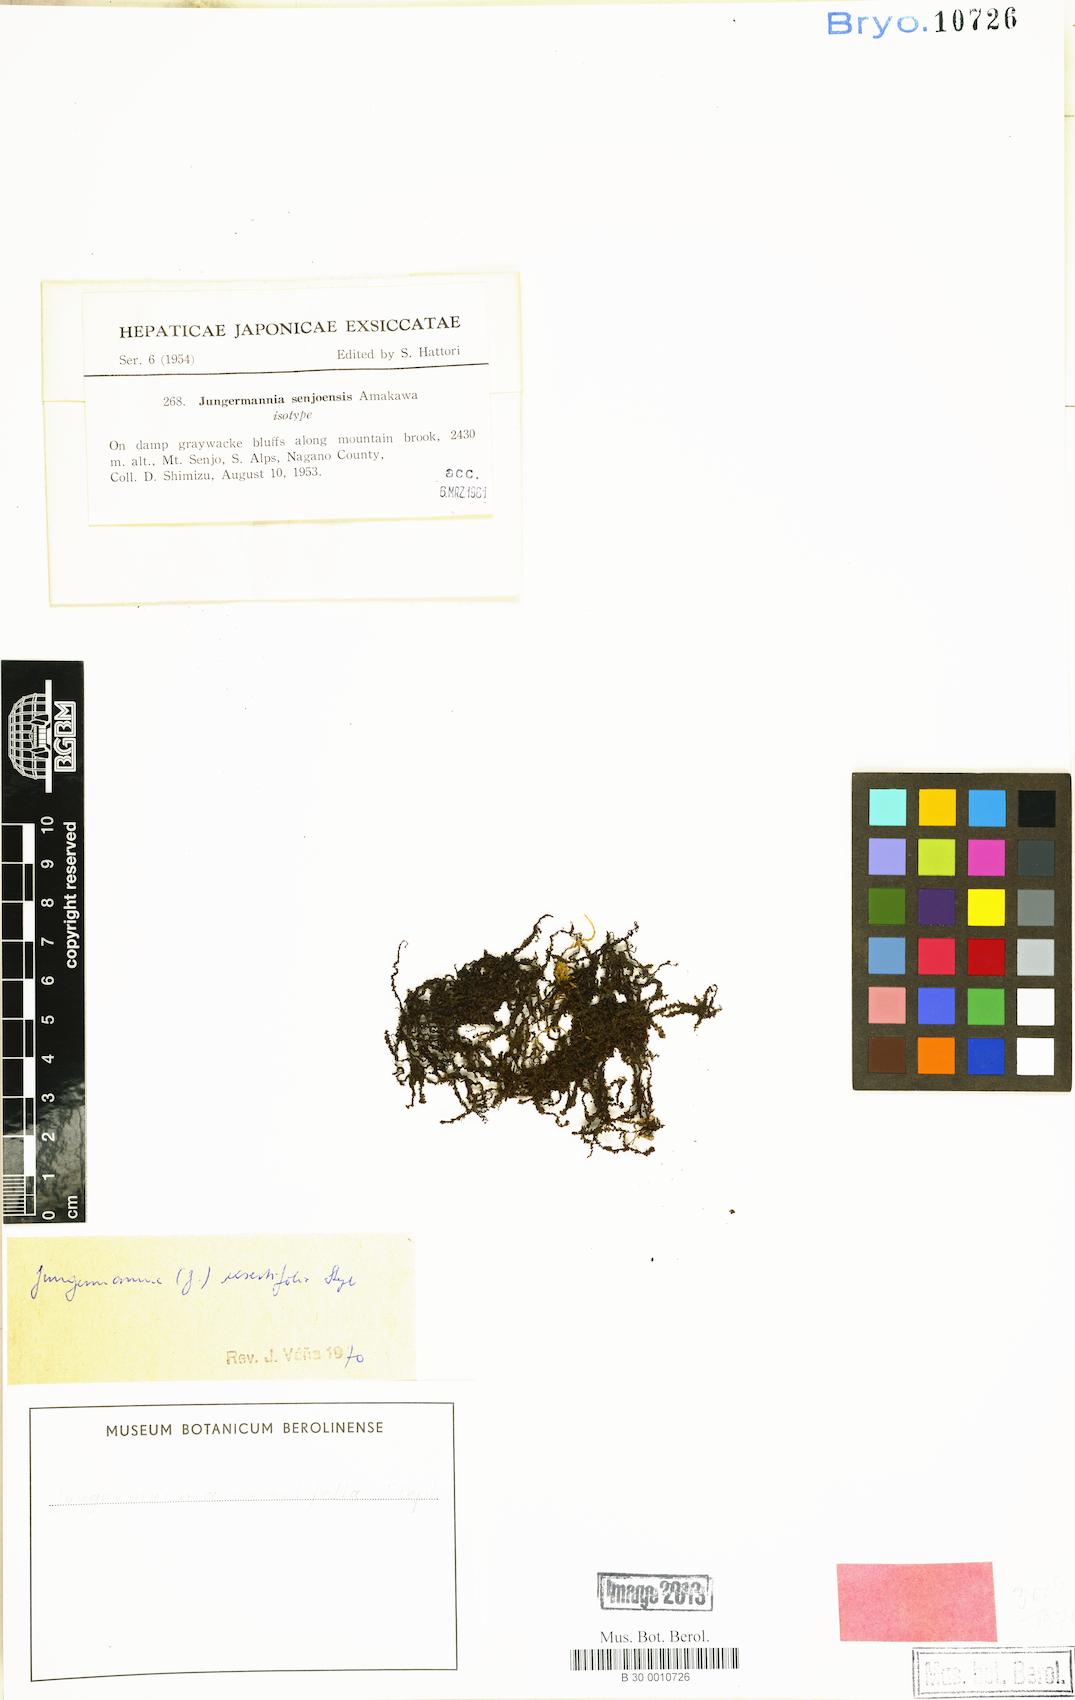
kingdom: Plantae
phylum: Marchantiophyta
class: Jungermanniopsida
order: Jungermanniales
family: Jungermanniaceae
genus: Jungermannia
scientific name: Jungermannia exsertifolia
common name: Cordate flapwort
